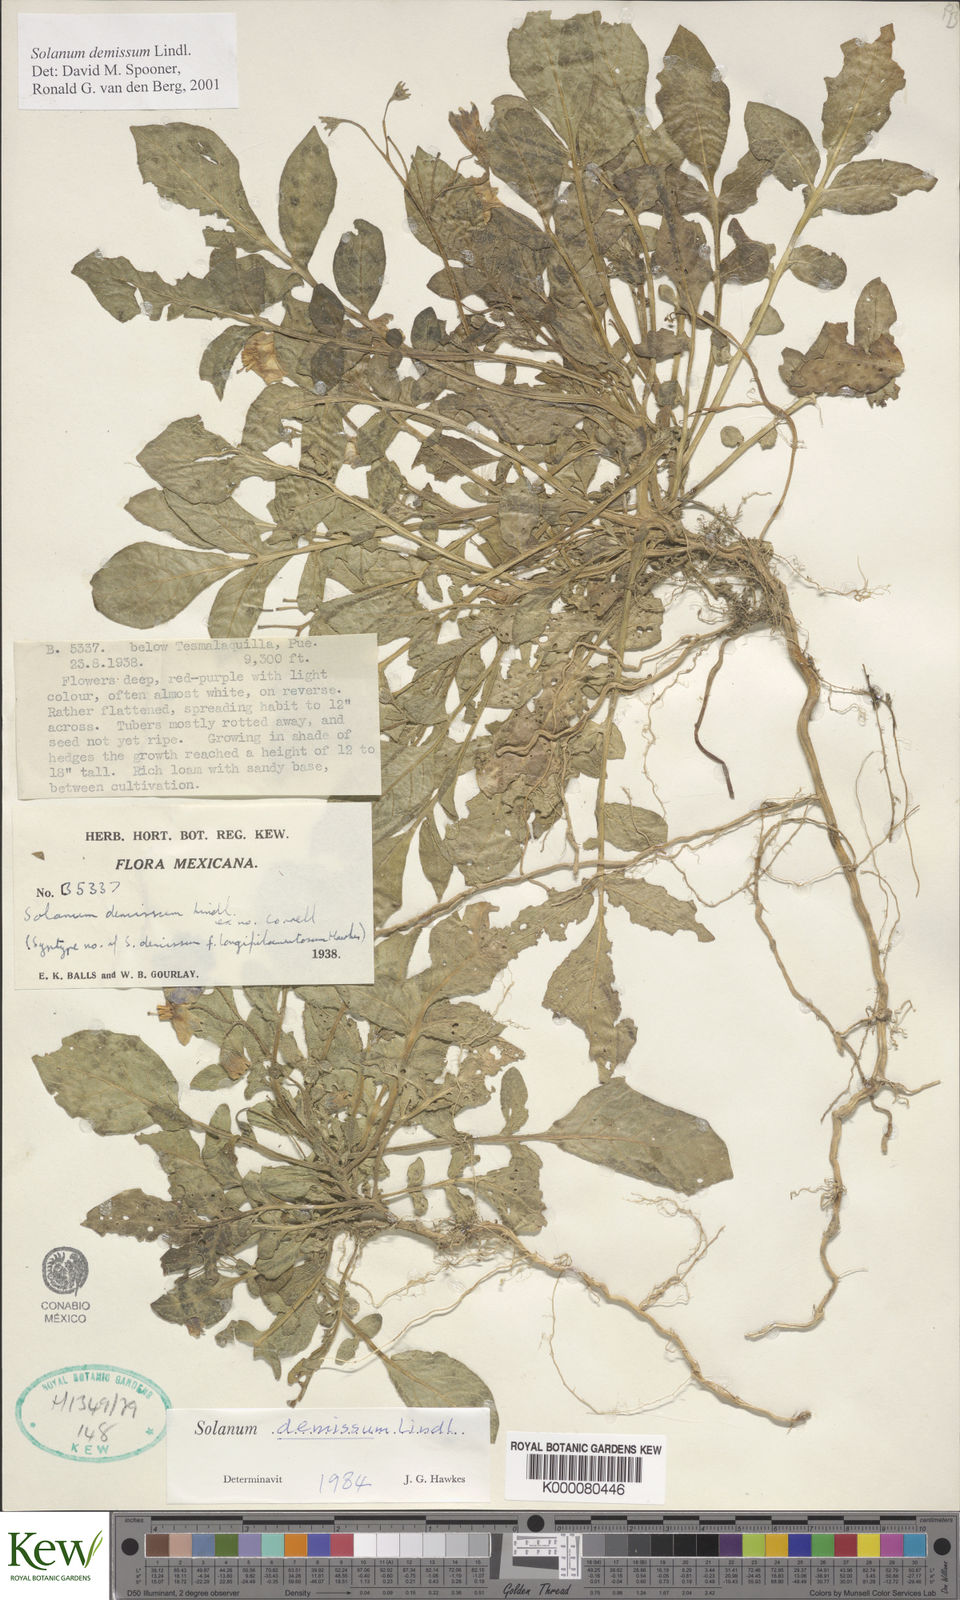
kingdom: Plantae
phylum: Tracheophyta
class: Magnoliopsida
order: Solanales
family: Solanaceae
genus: Solanum
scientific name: Solanum demissum
